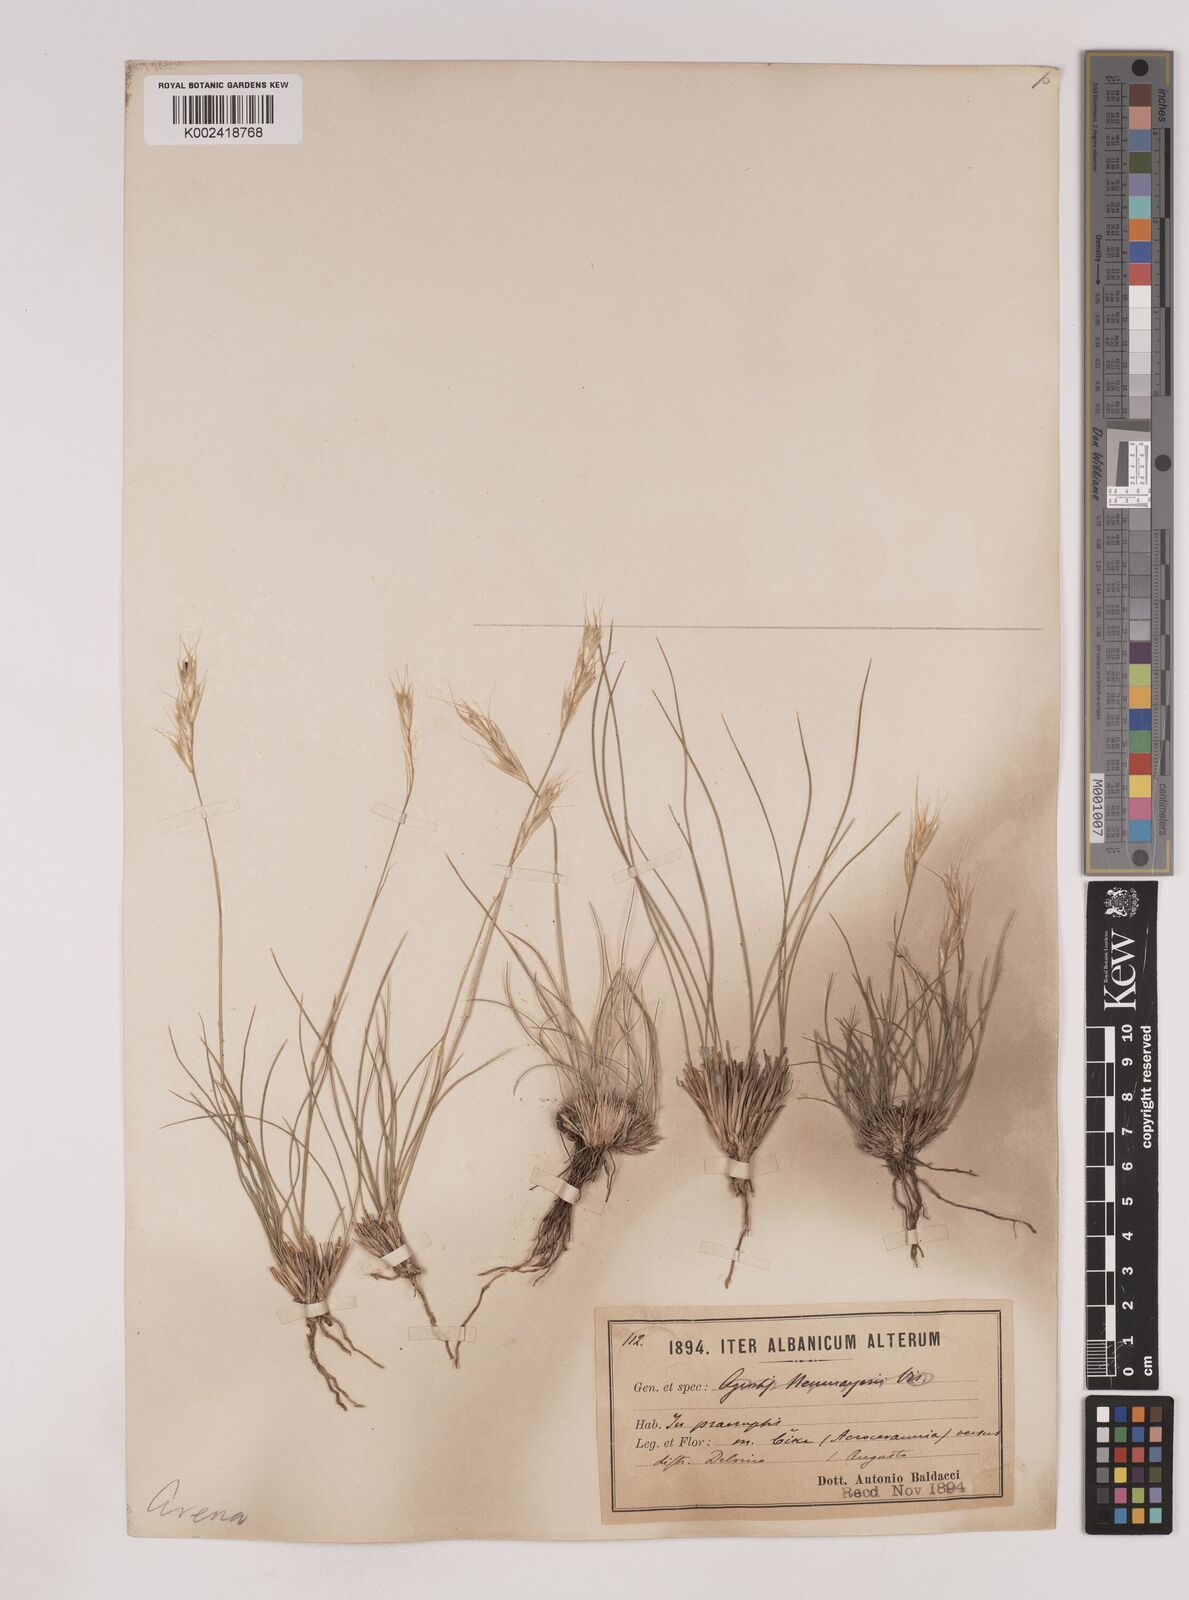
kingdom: Plantae
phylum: Tracheophyta
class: Liliopsida
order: Poales
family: Poaceae
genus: Danthoniastrum
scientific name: Danthoniastrum compactum
